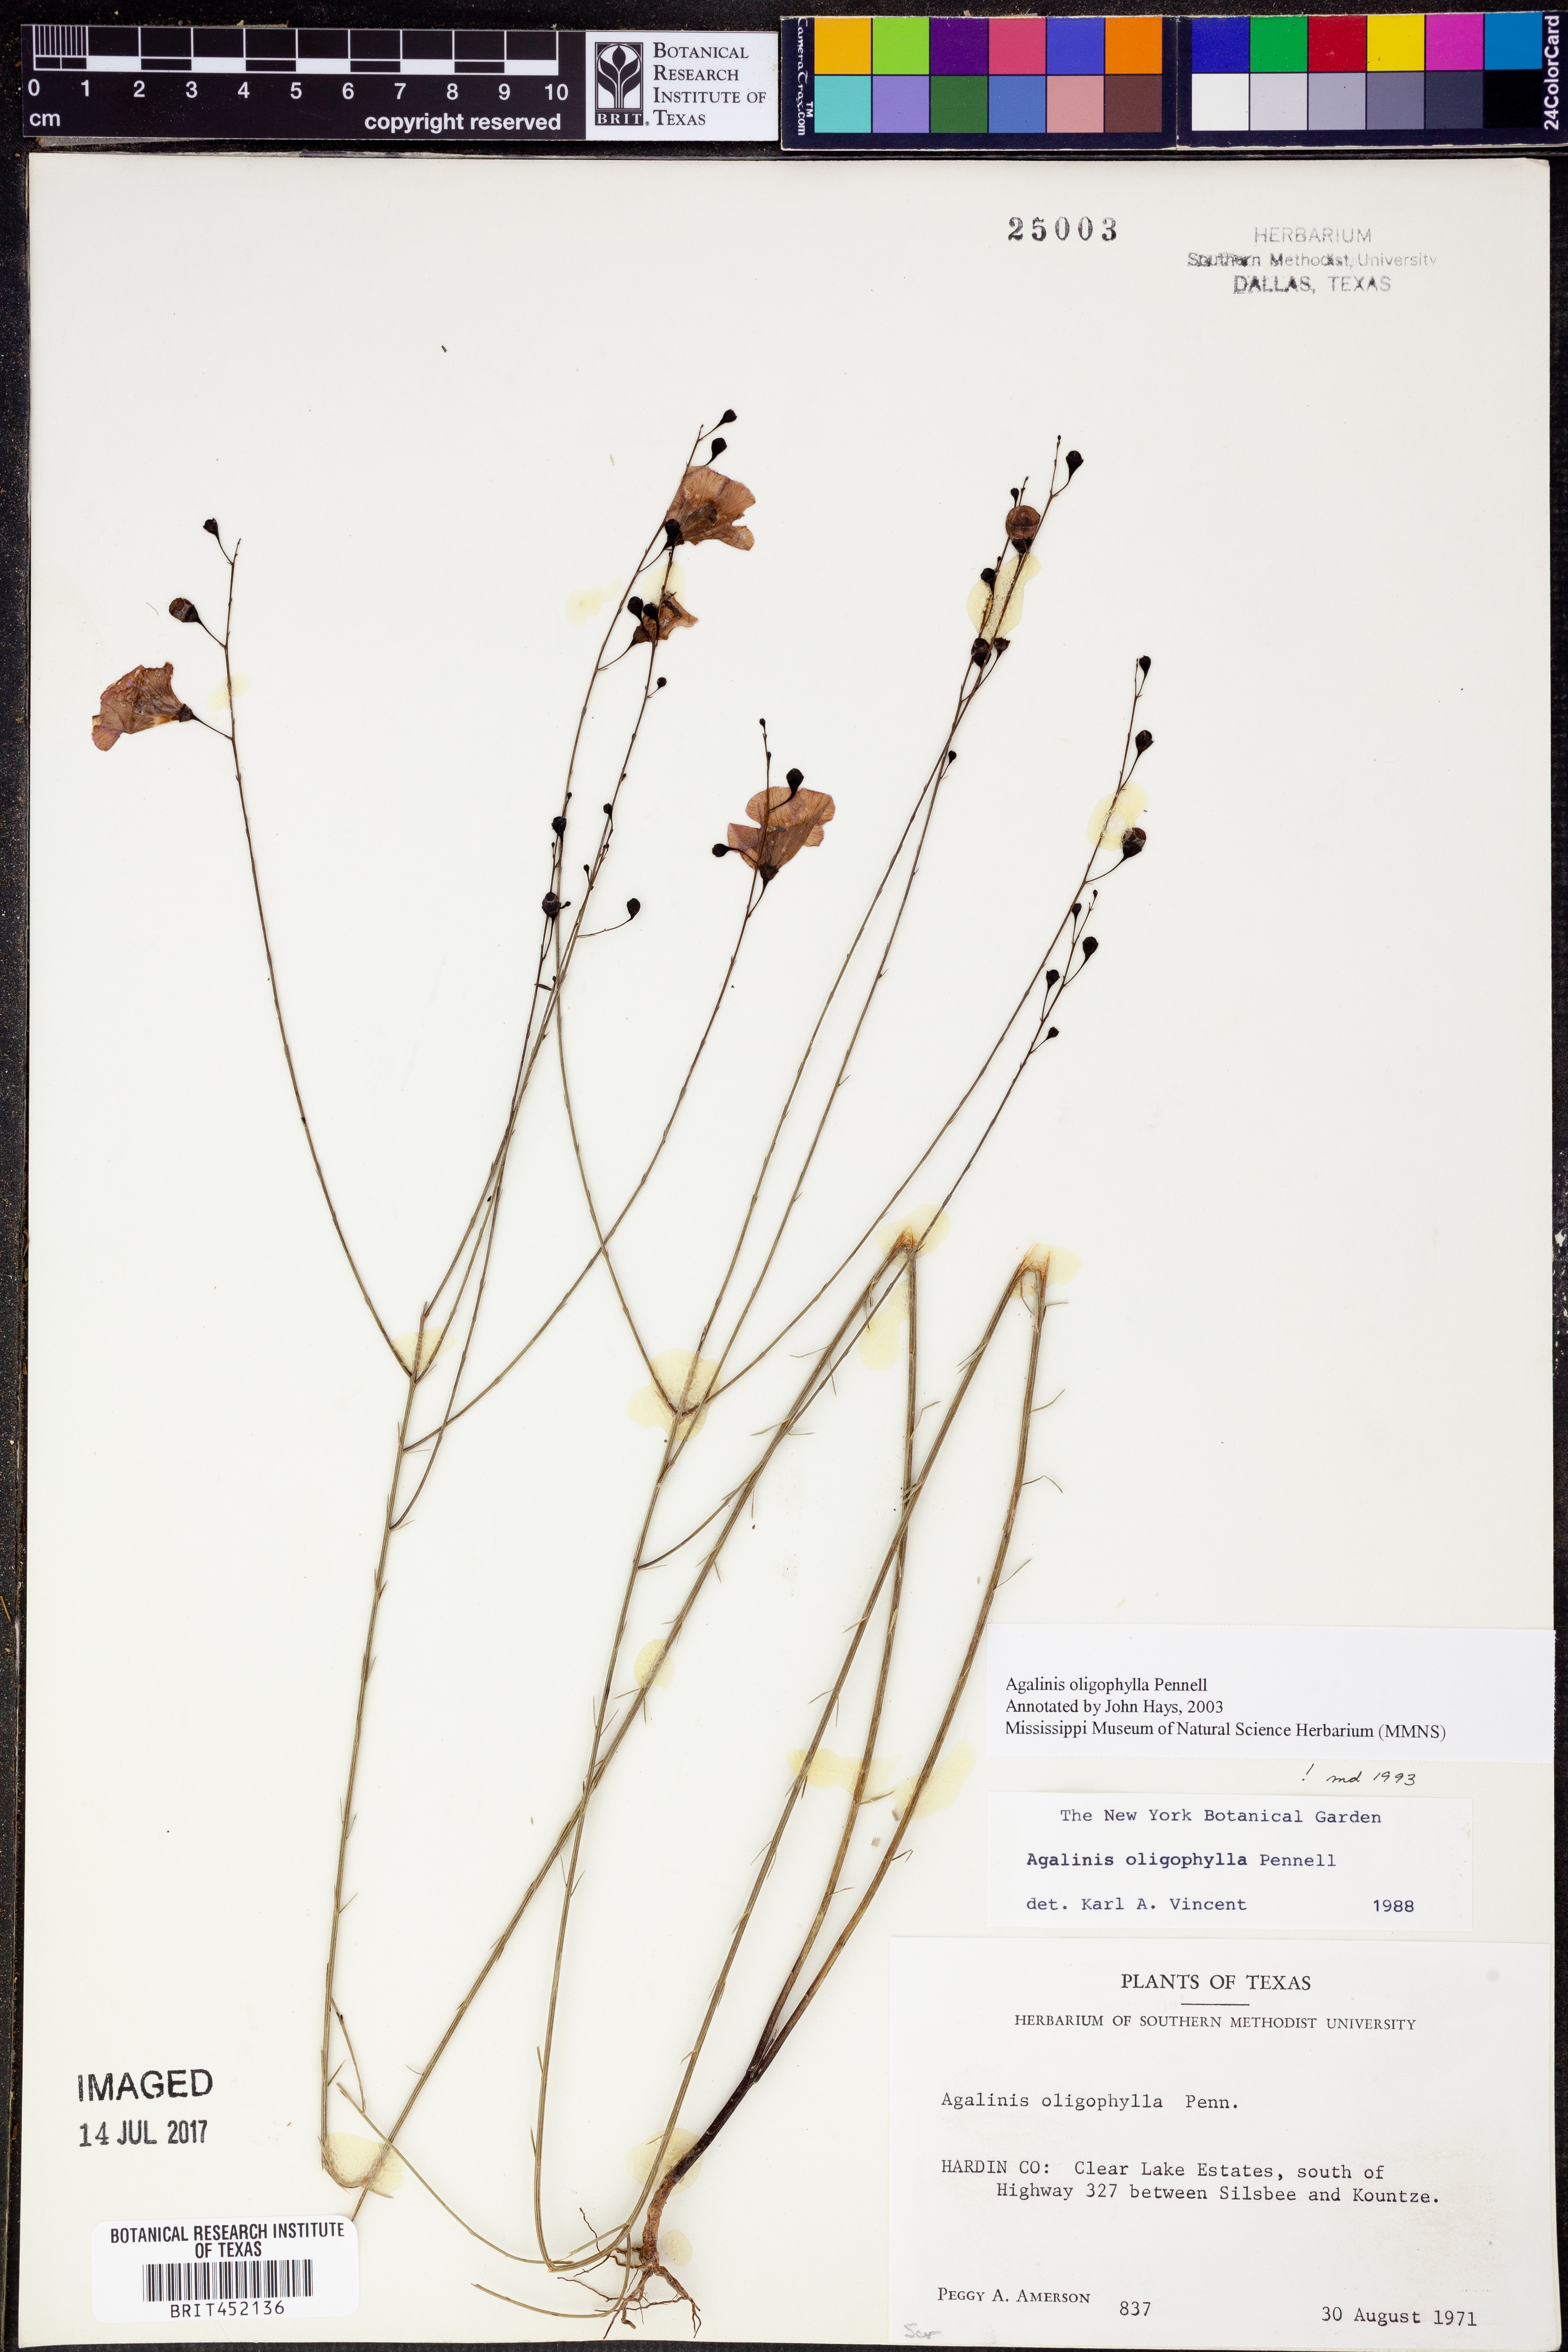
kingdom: Plantae
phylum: Tracheophyta
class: Magnoliopsida
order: Lamiales
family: Orobanchaceae
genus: Agalinis
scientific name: Agalinis oligophylla
